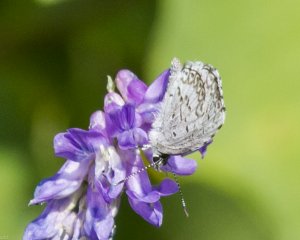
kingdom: Animalia
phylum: Arthropoda
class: Insecta
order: Lepidoptera
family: Lycaenidae
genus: Cyaniris
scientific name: Cyaniris neglecta
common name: Summer Azure
